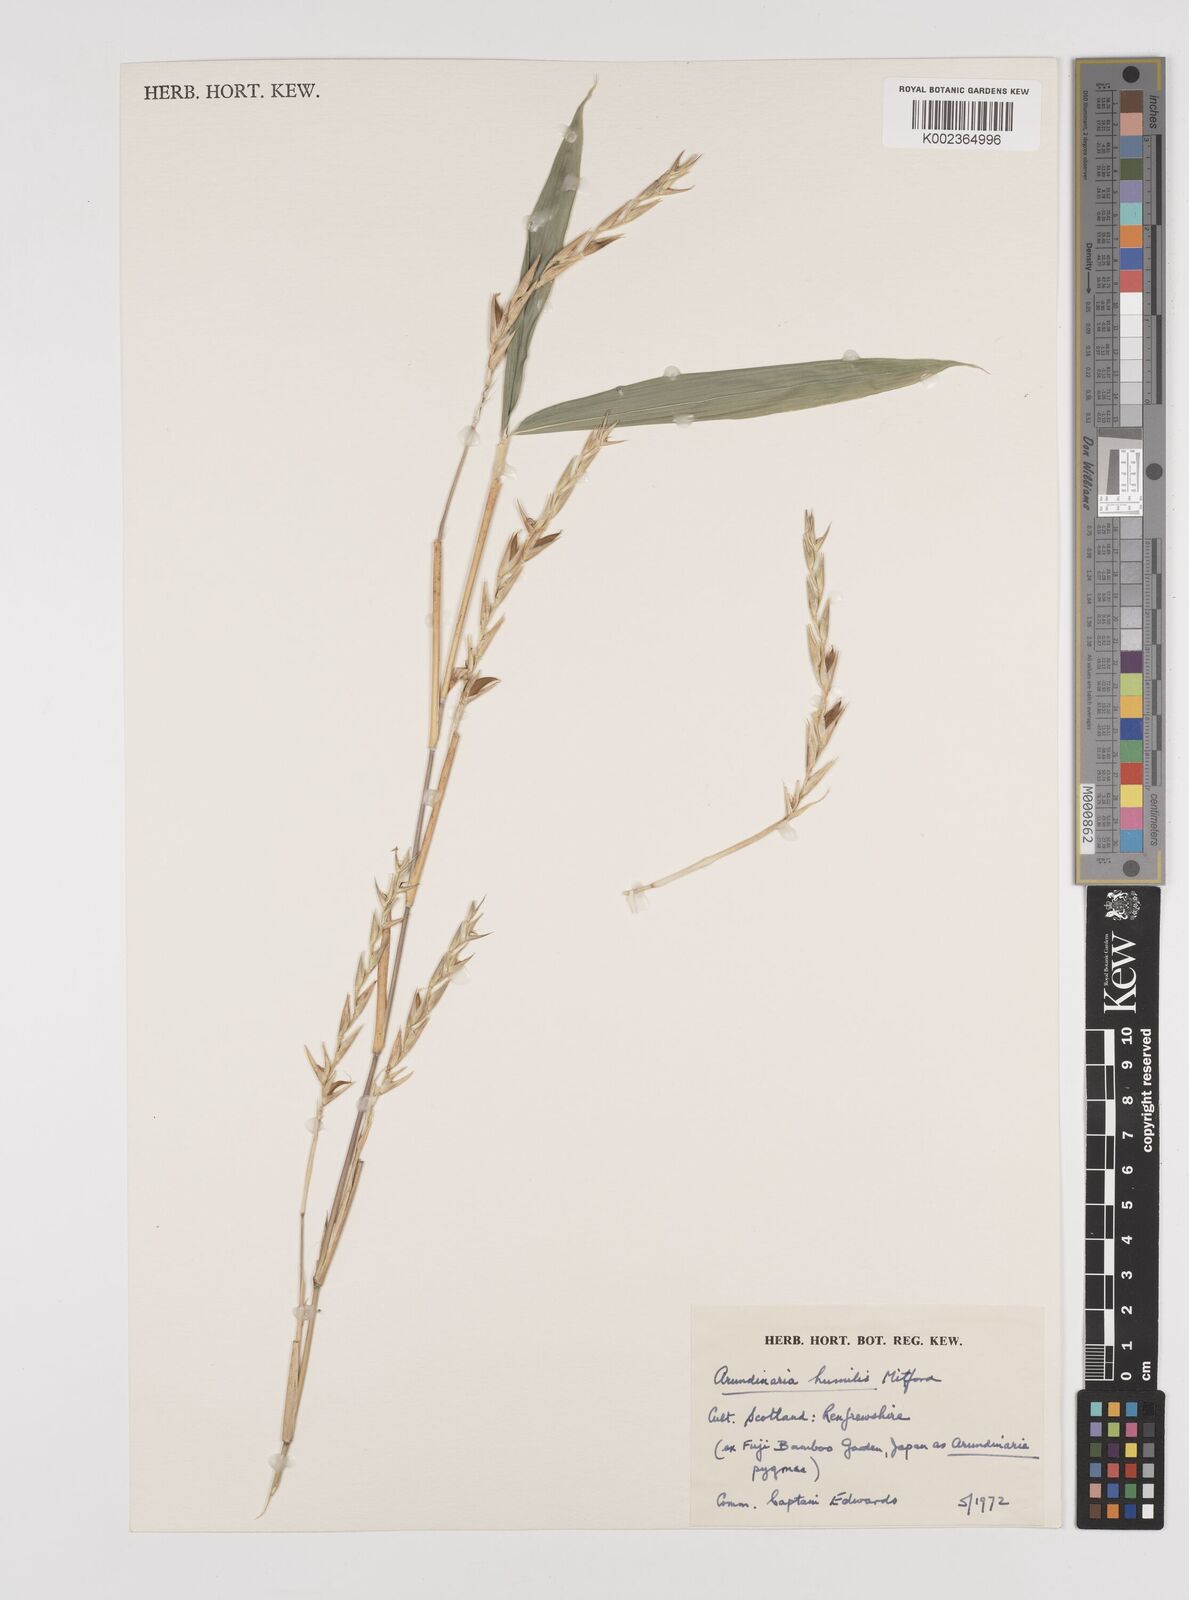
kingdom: Plantae
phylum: Tracheophyta
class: Liliopsida
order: Poales
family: Poaceae
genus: Pseudosasa
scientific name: Pseudosasa humilis
